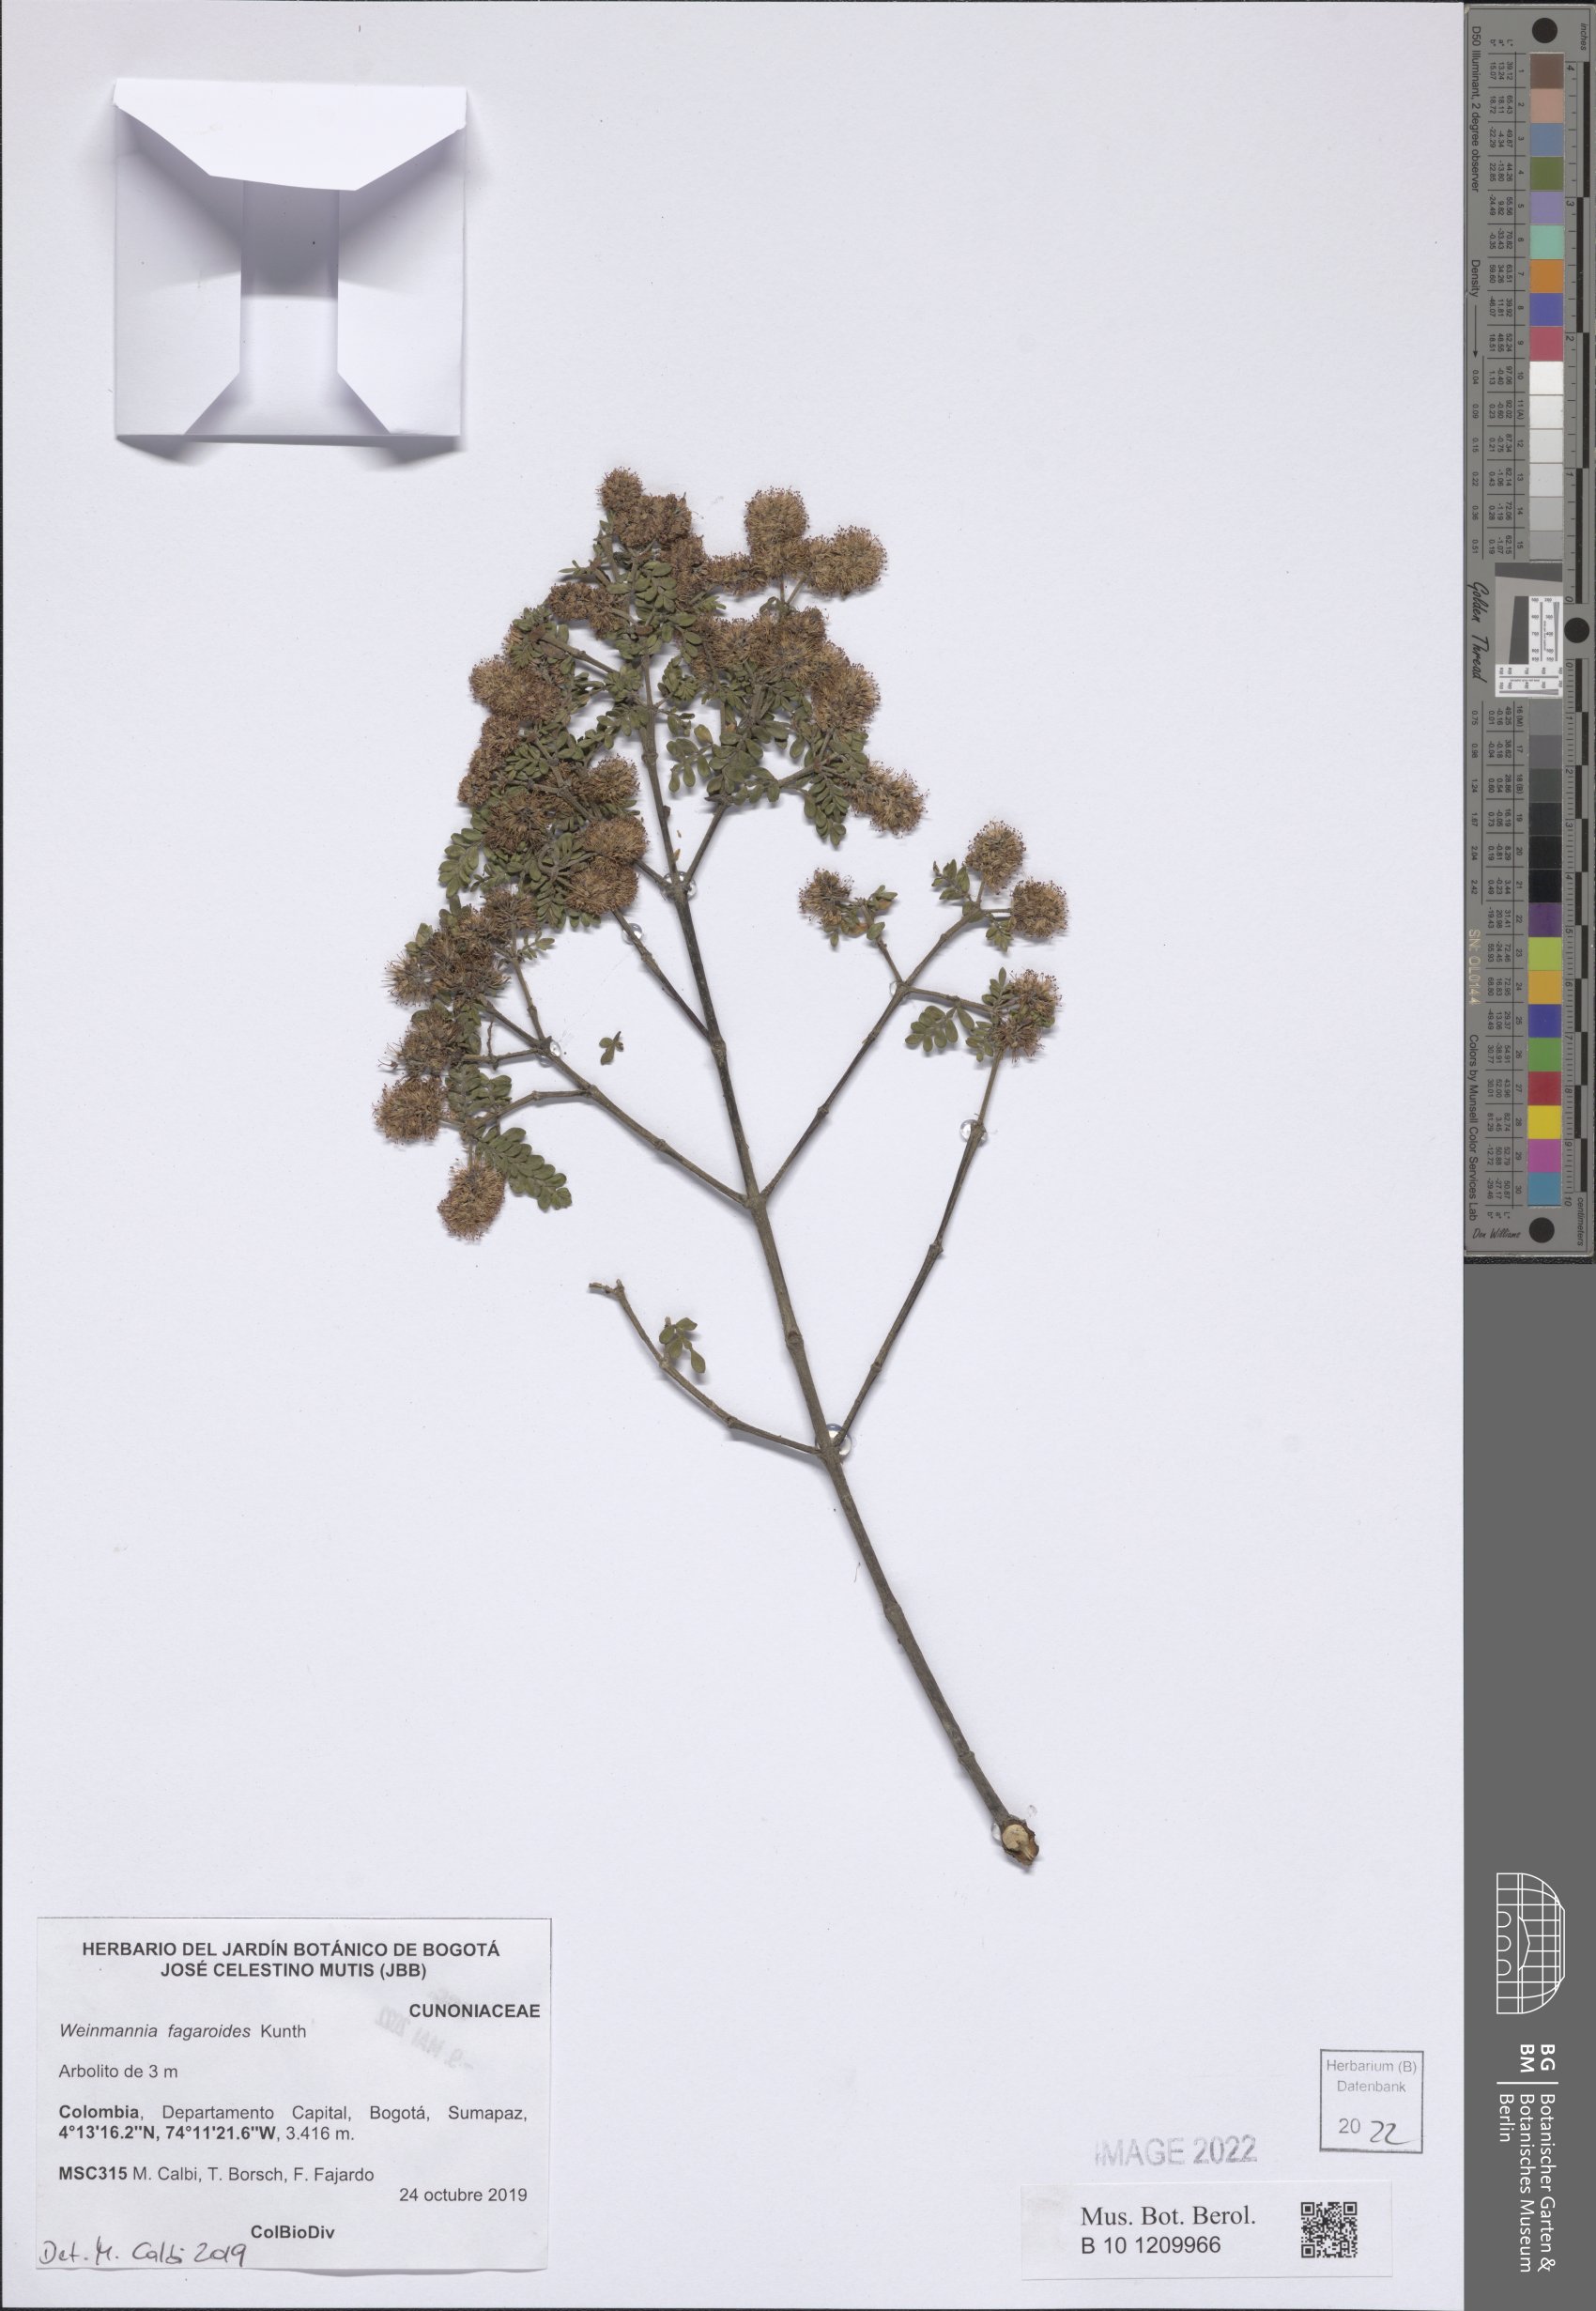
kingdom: Plantae
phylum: Tracheophyta
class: Magnoliopsida
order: Oxalidales
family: Cunoniaceae
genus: Weinmannia
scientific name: Weinmannia fagaroides
